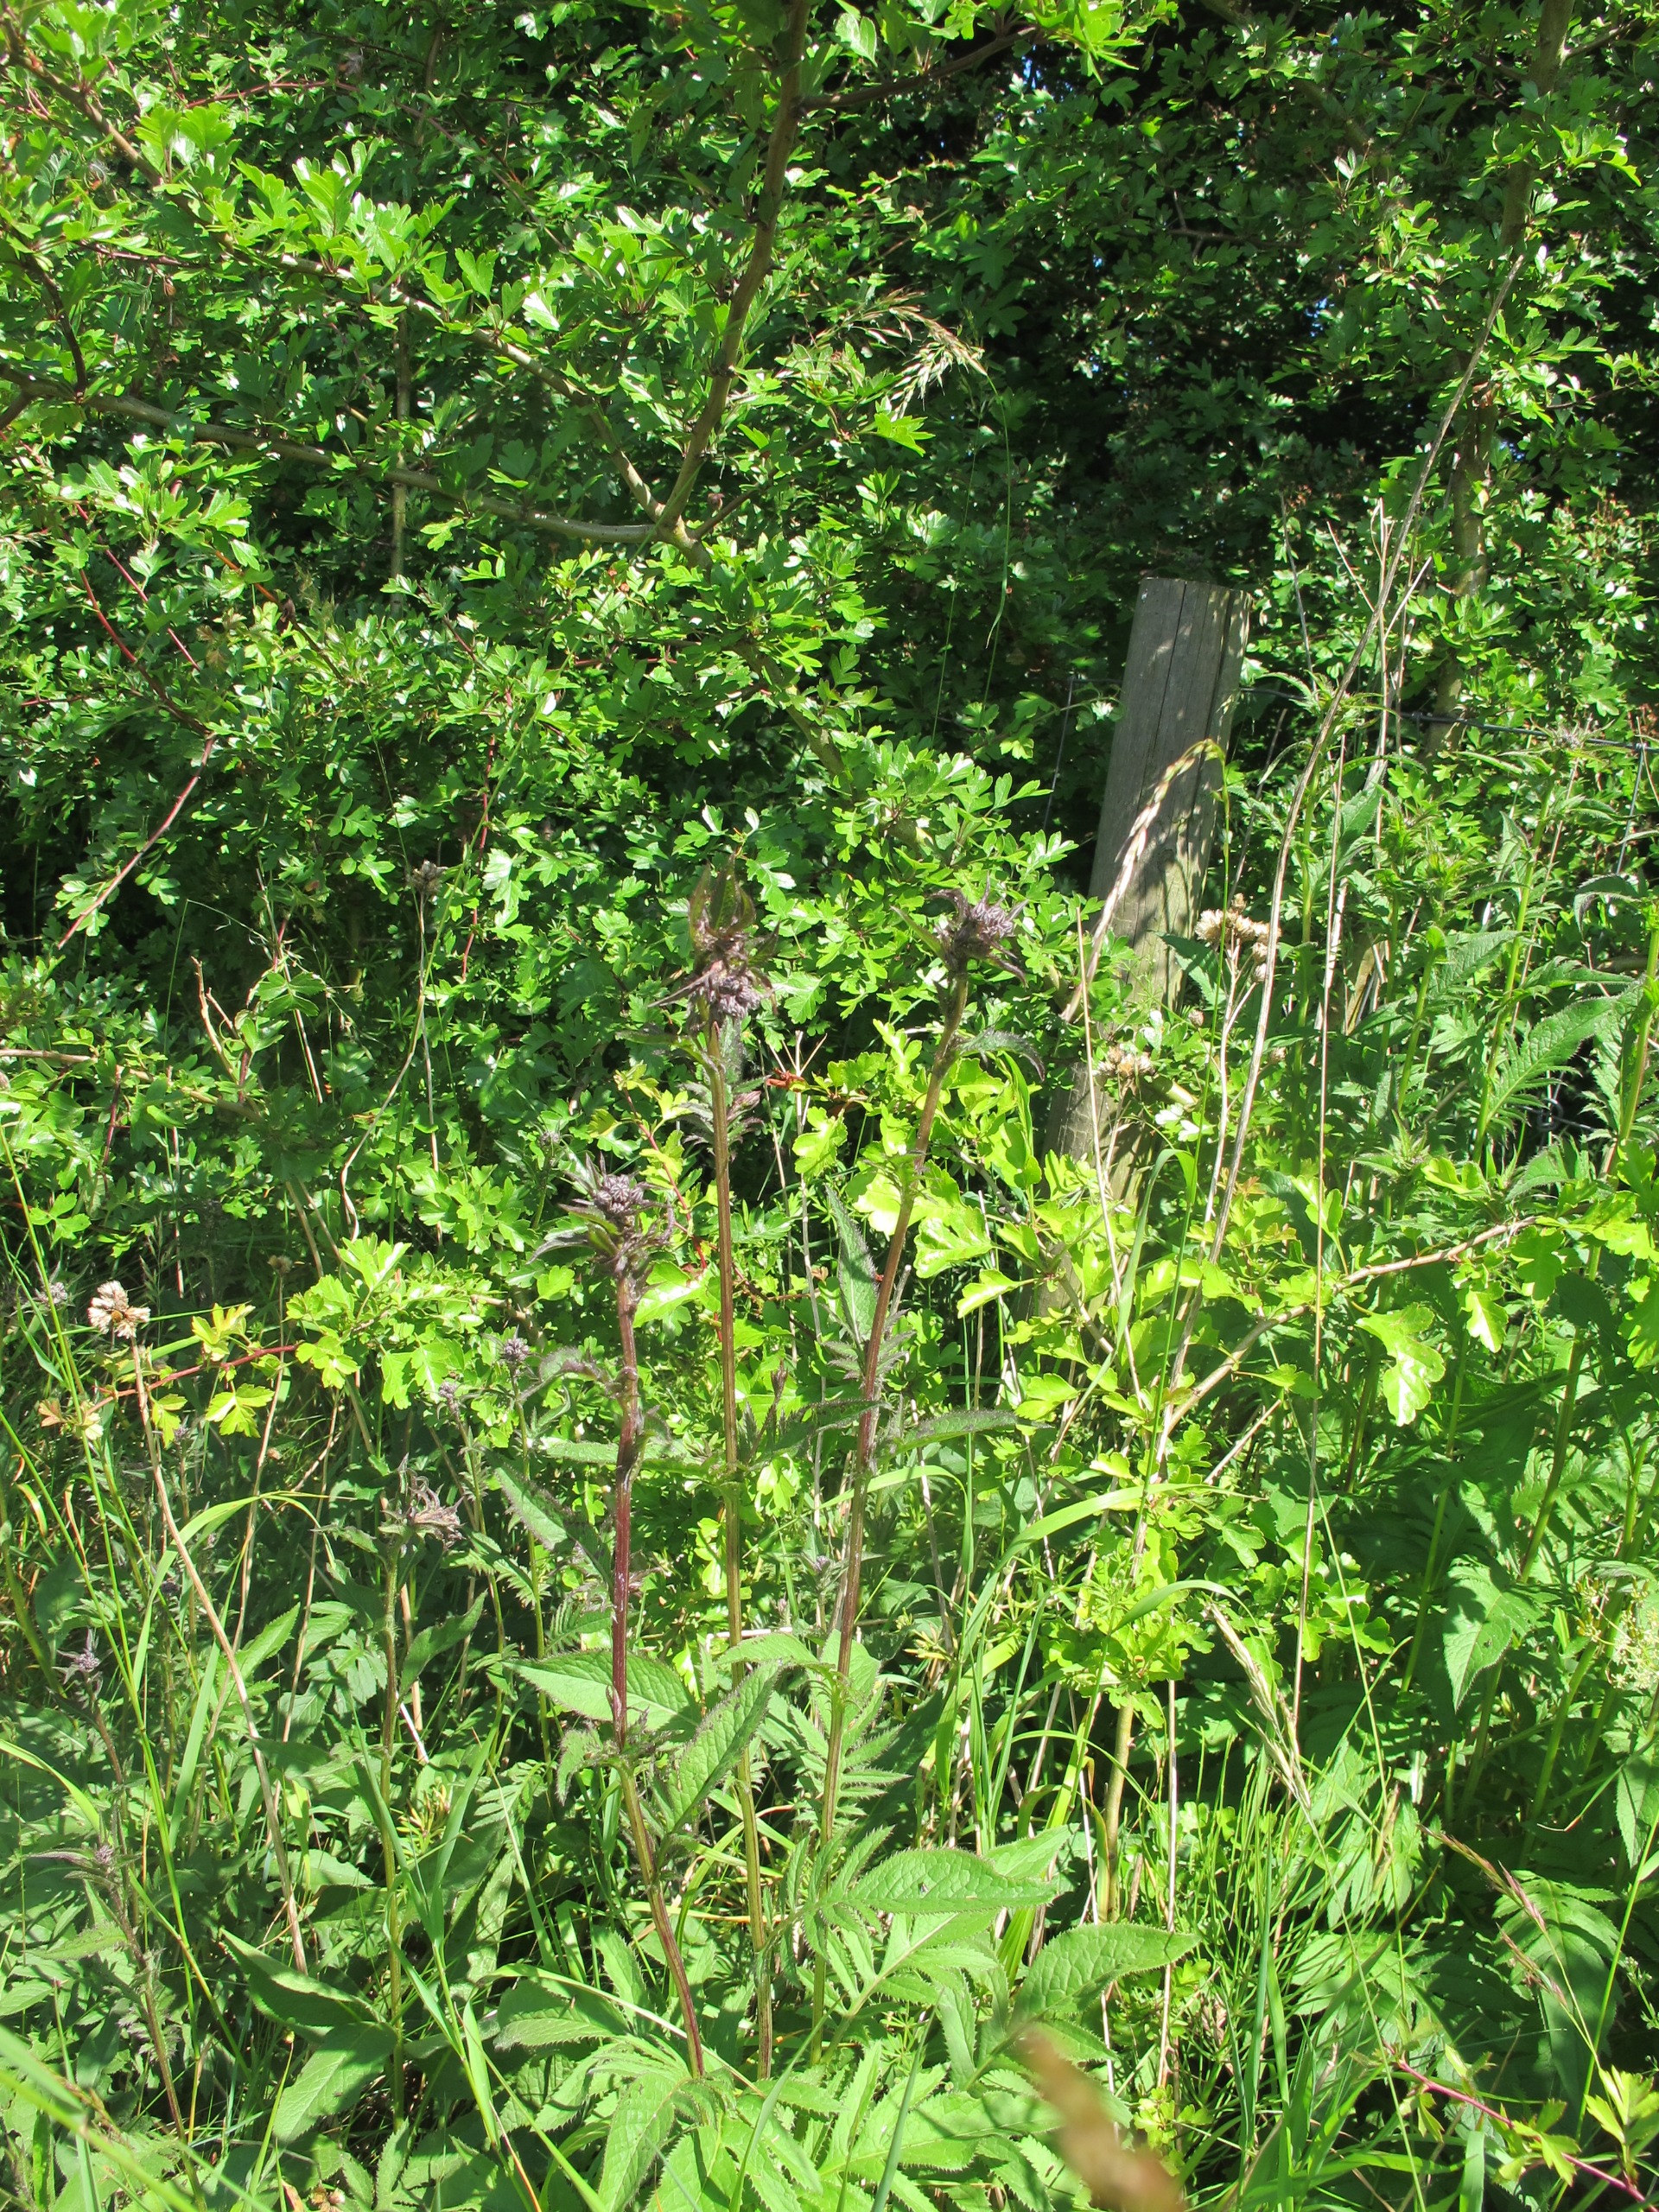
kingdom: Plantae
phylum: Tracheophyta
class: Magnoliopsida
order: Asterales
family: Asteraceae
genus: Serratula
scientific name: Serratula tinctoria
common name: Eng-skær
